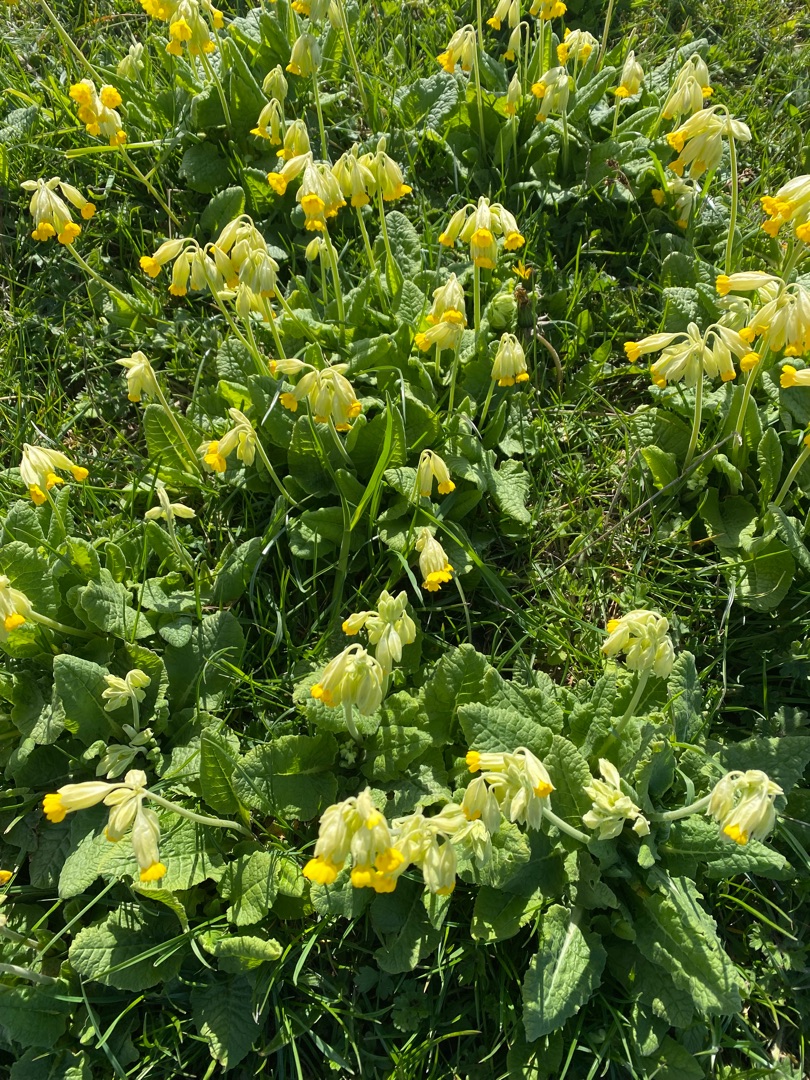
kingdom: Plantae
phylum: Tracheophyta
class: Magnoliopsida
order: Ericales
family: Primulaceae
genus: Primula
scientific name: Primula veris
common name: Hulkravet kodriver
